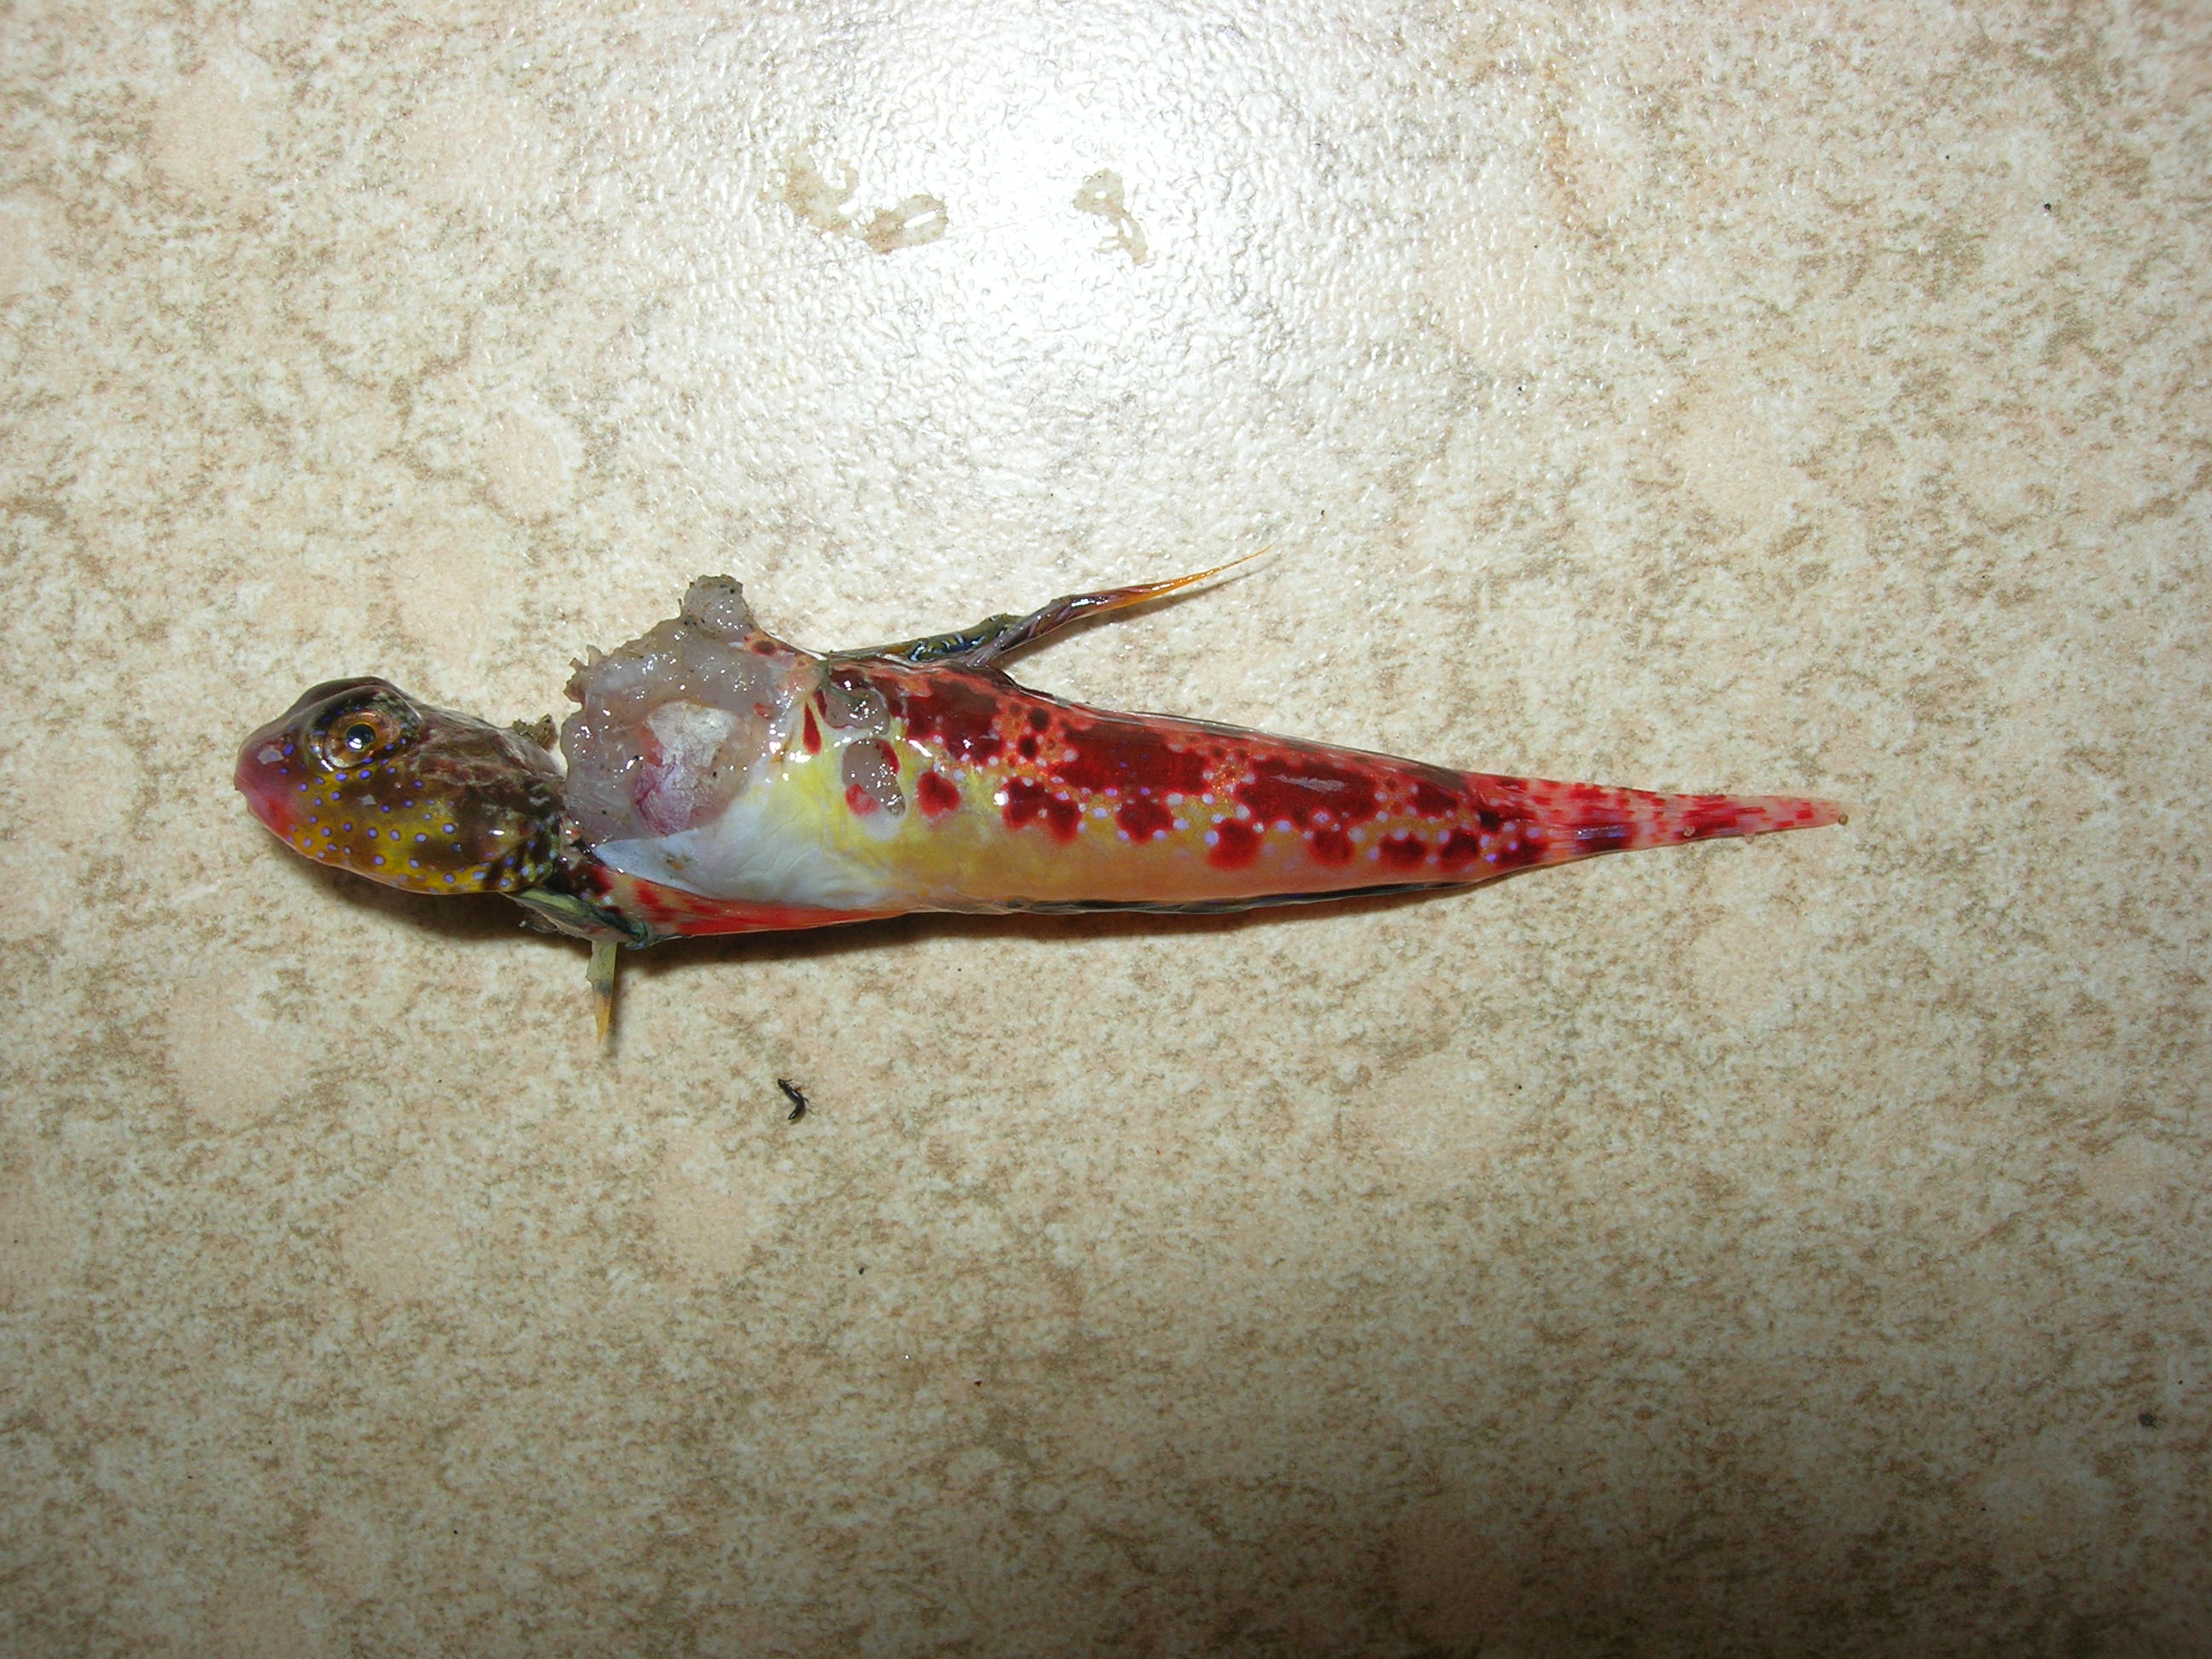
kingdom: Animalia
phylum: Chordata
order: Perciformes
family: Callionymidae
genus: Synchiropus
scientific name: Synchiropus stellatus
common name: Starry dragonet
